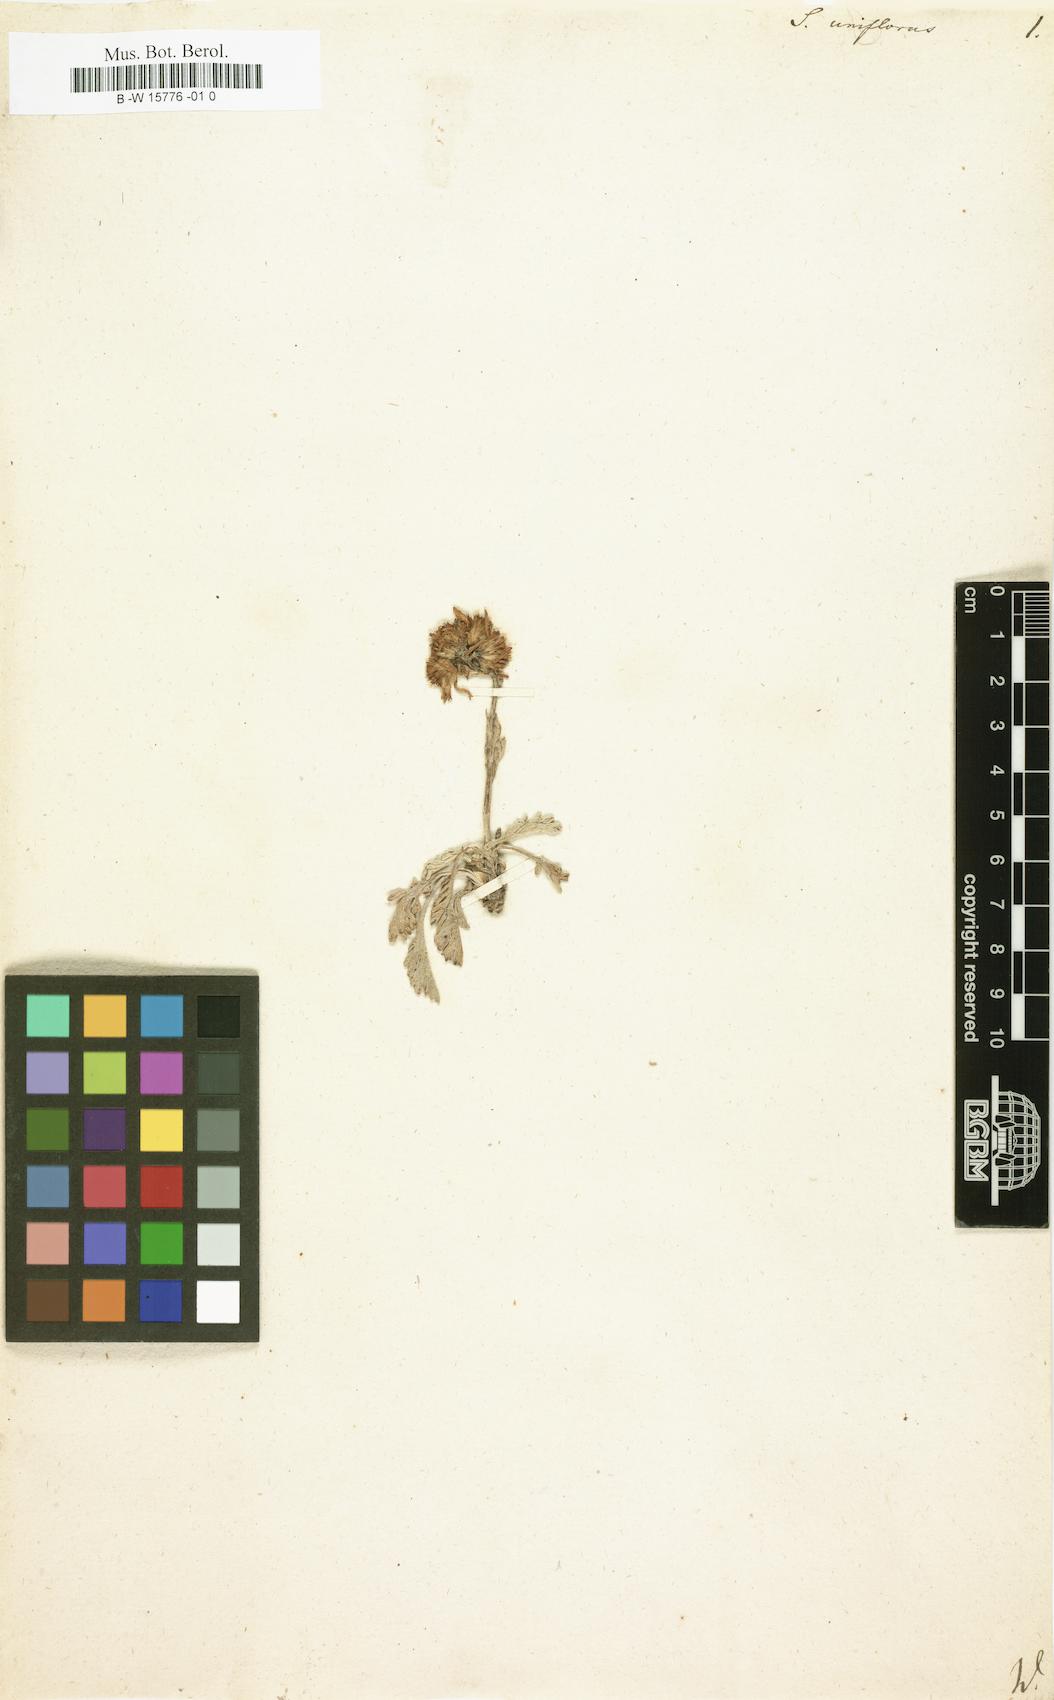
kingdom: Plantae
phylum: Tracheophyta
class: Magnoliopsida
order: Asterales
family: Asteraceae
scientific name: Asteraceae
